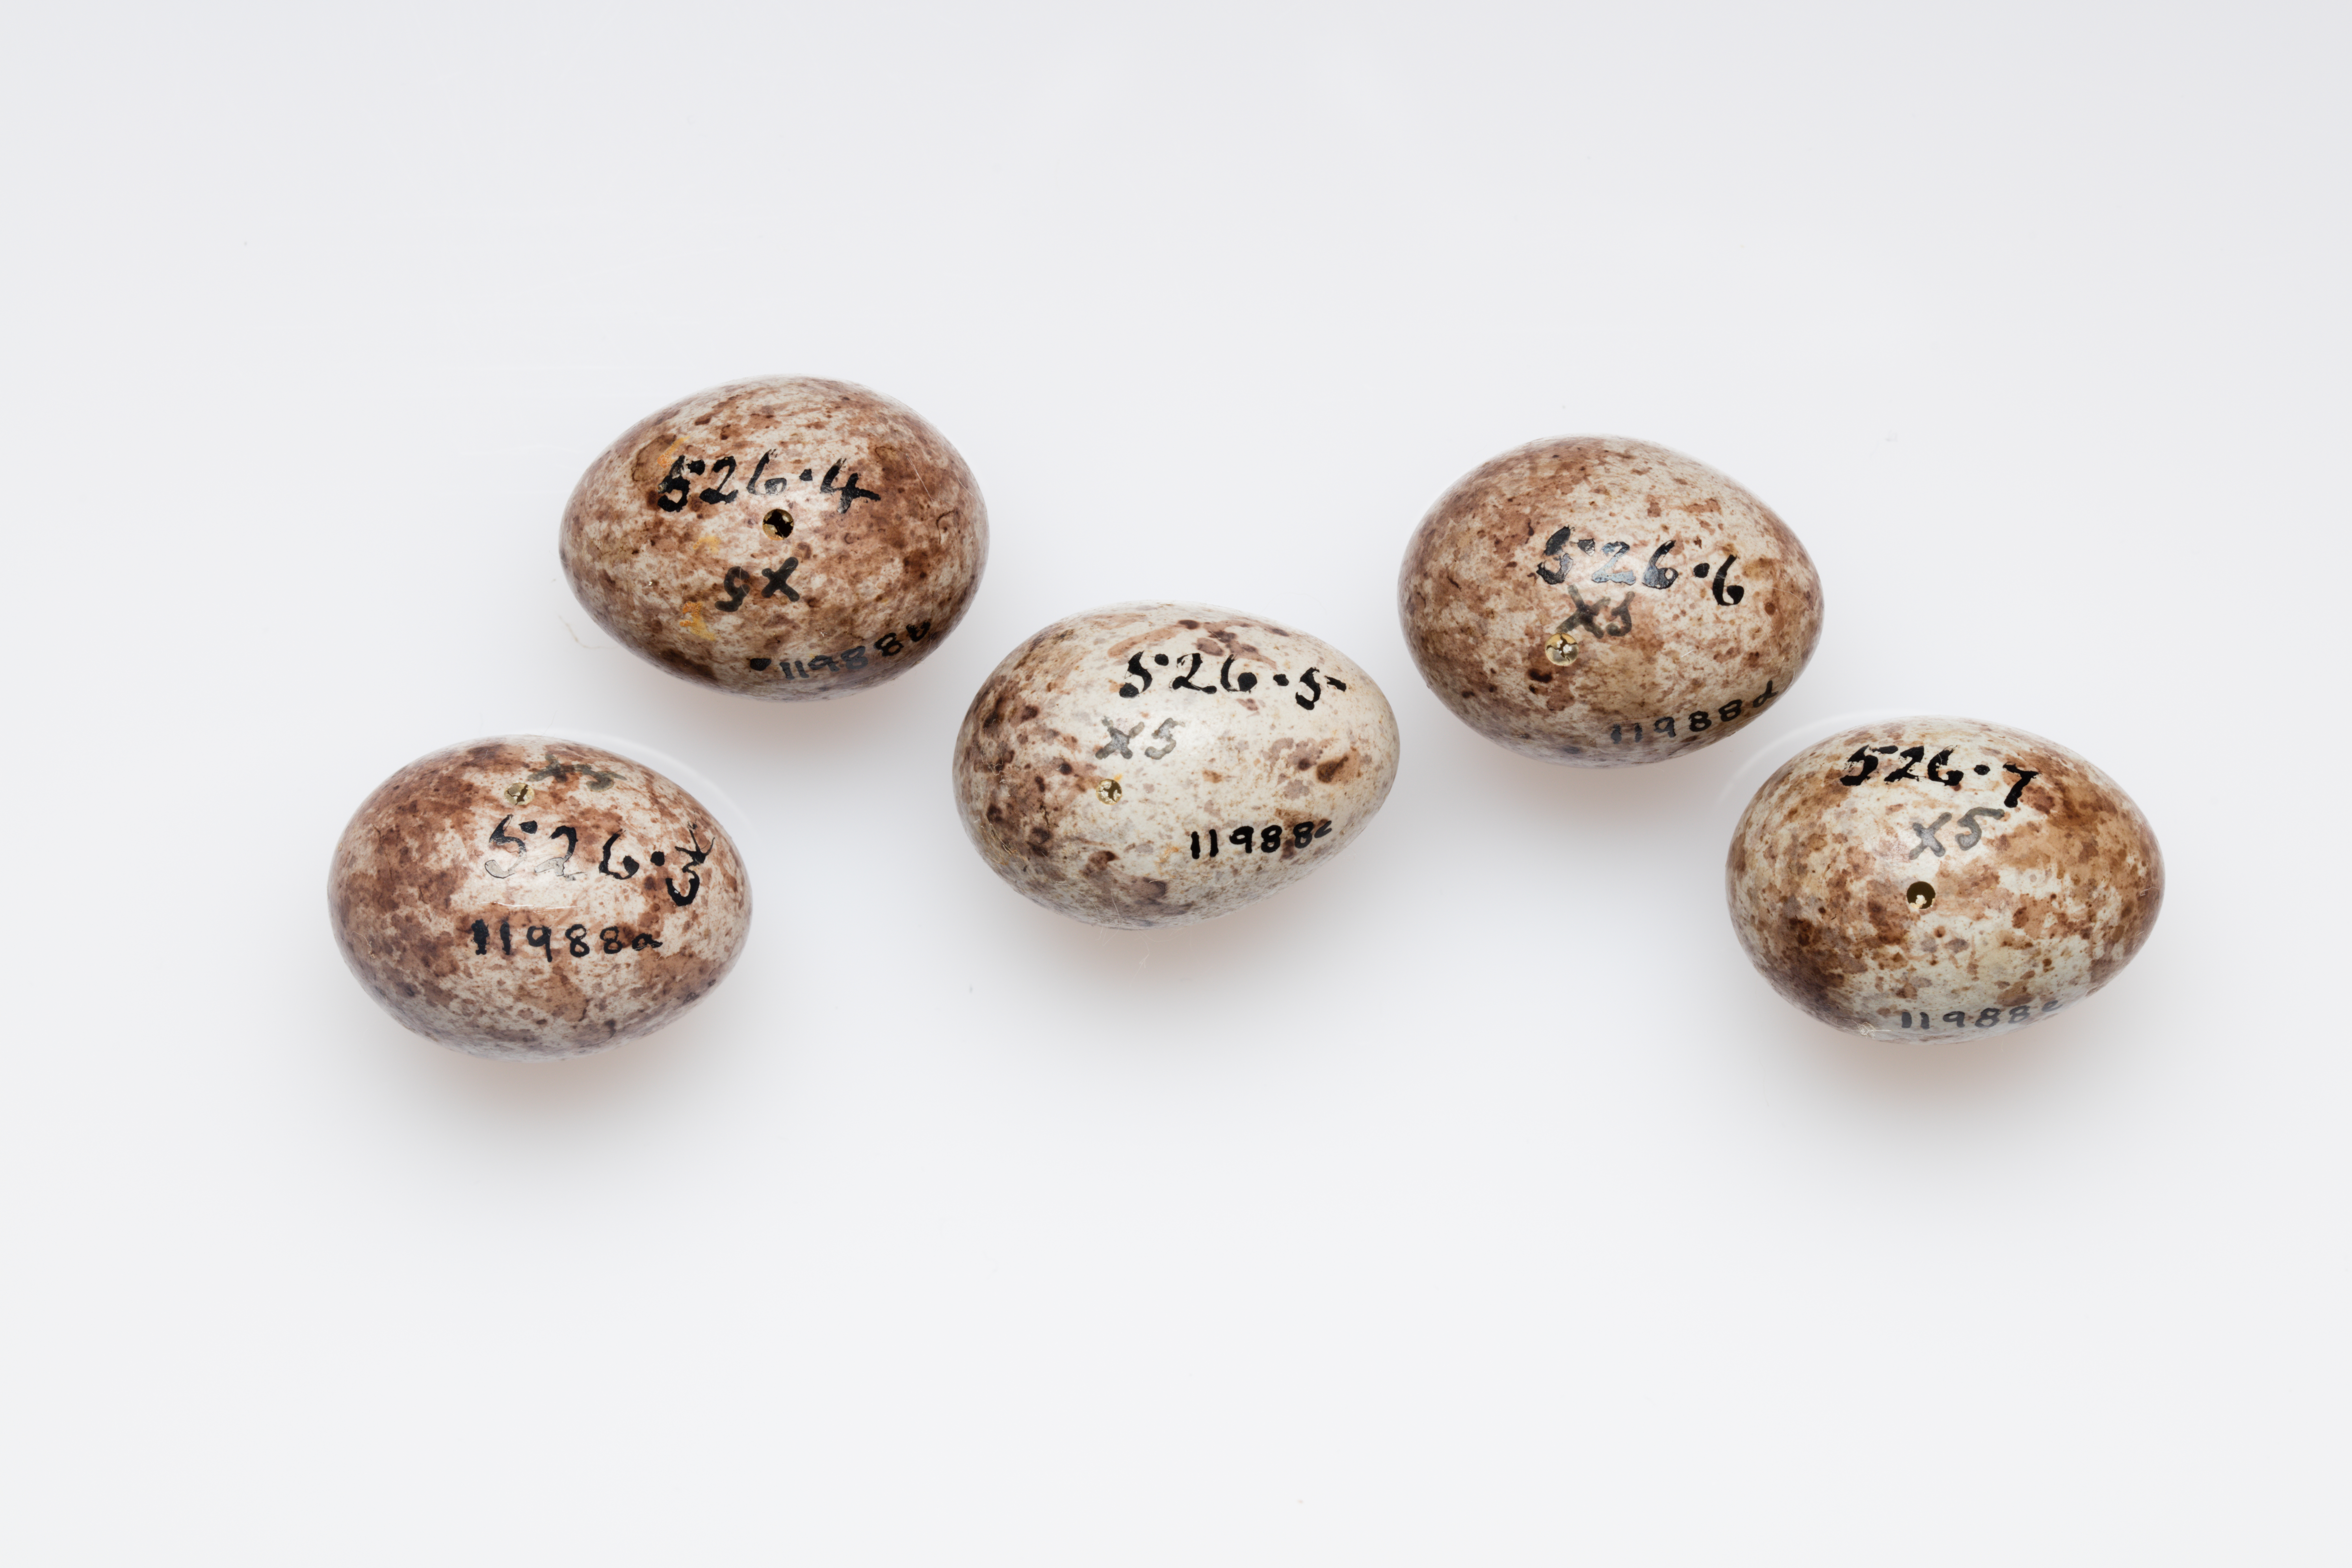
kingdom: Animalia
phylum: Chordata
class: Aves
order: Passeriformes
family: Icteridae
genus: Euphagus
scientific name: Euphagus cyanocephalus
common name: Brewer's blackbird
